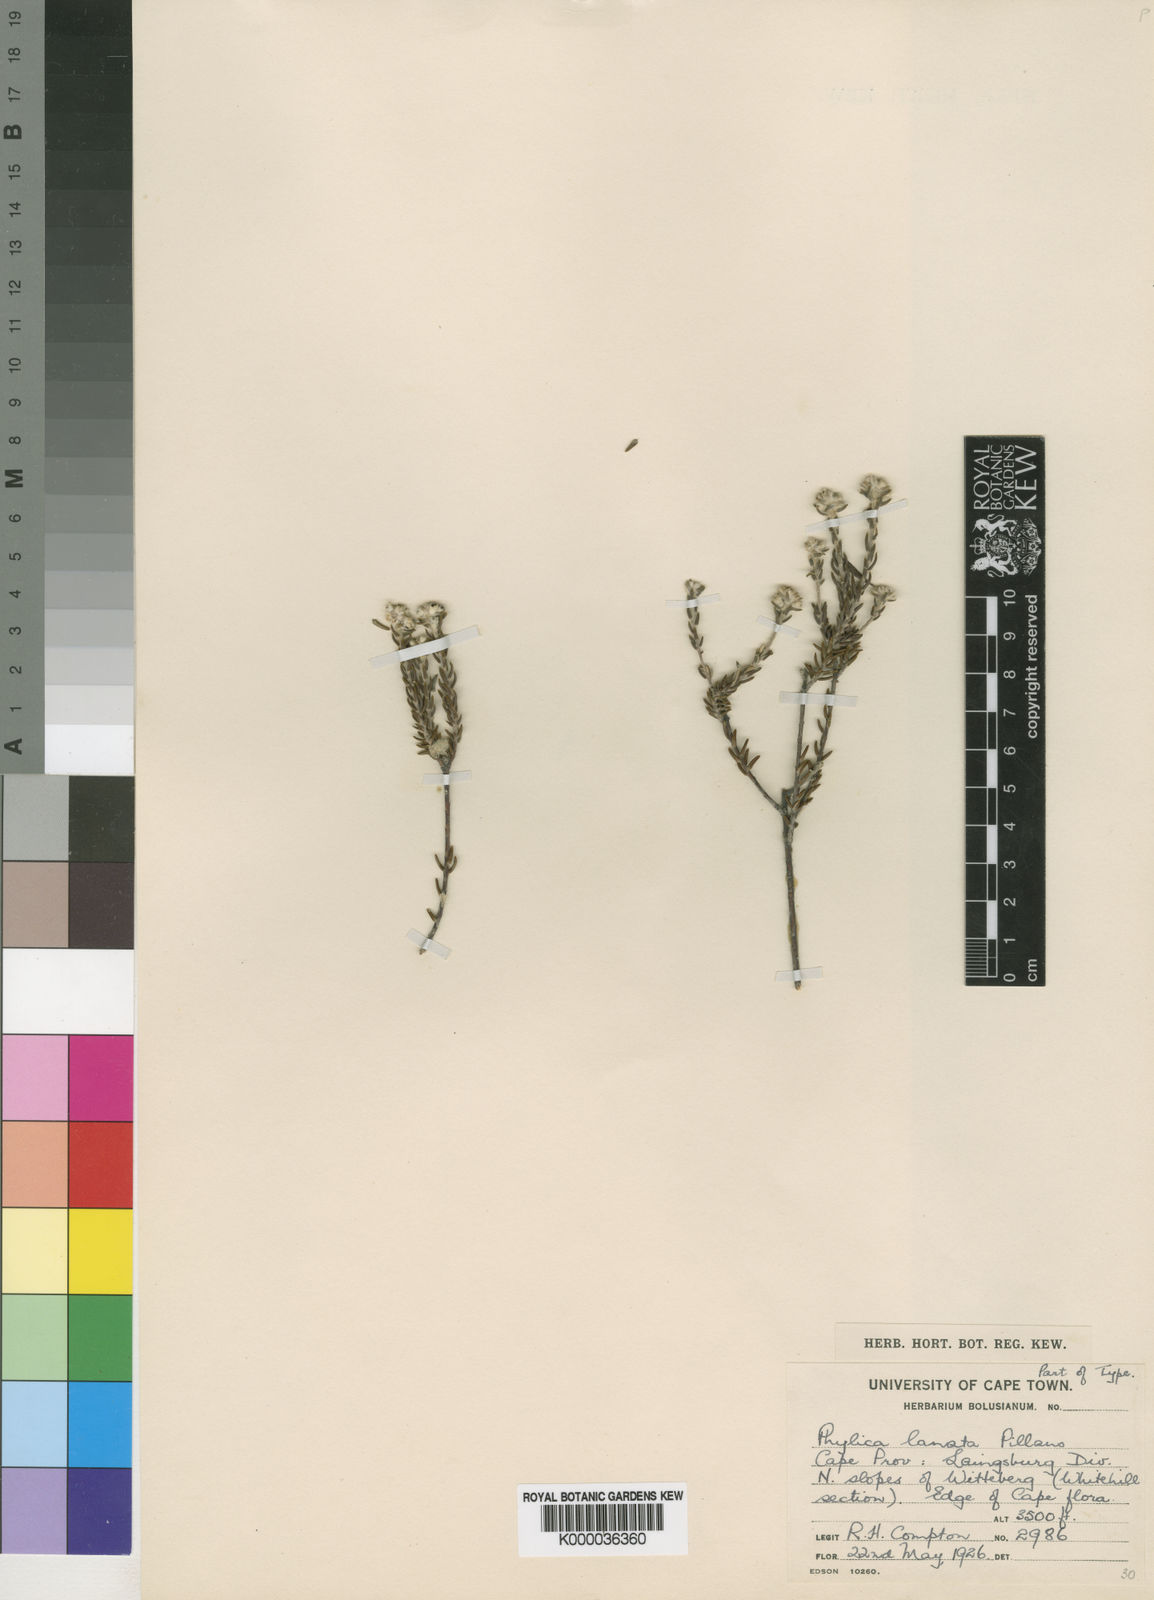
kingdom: Plantae
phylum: Tracheophyta
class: Magnoliopsida
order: Rosales
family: Rhamnaceae
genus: Phylica
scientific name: Phylica lanata
